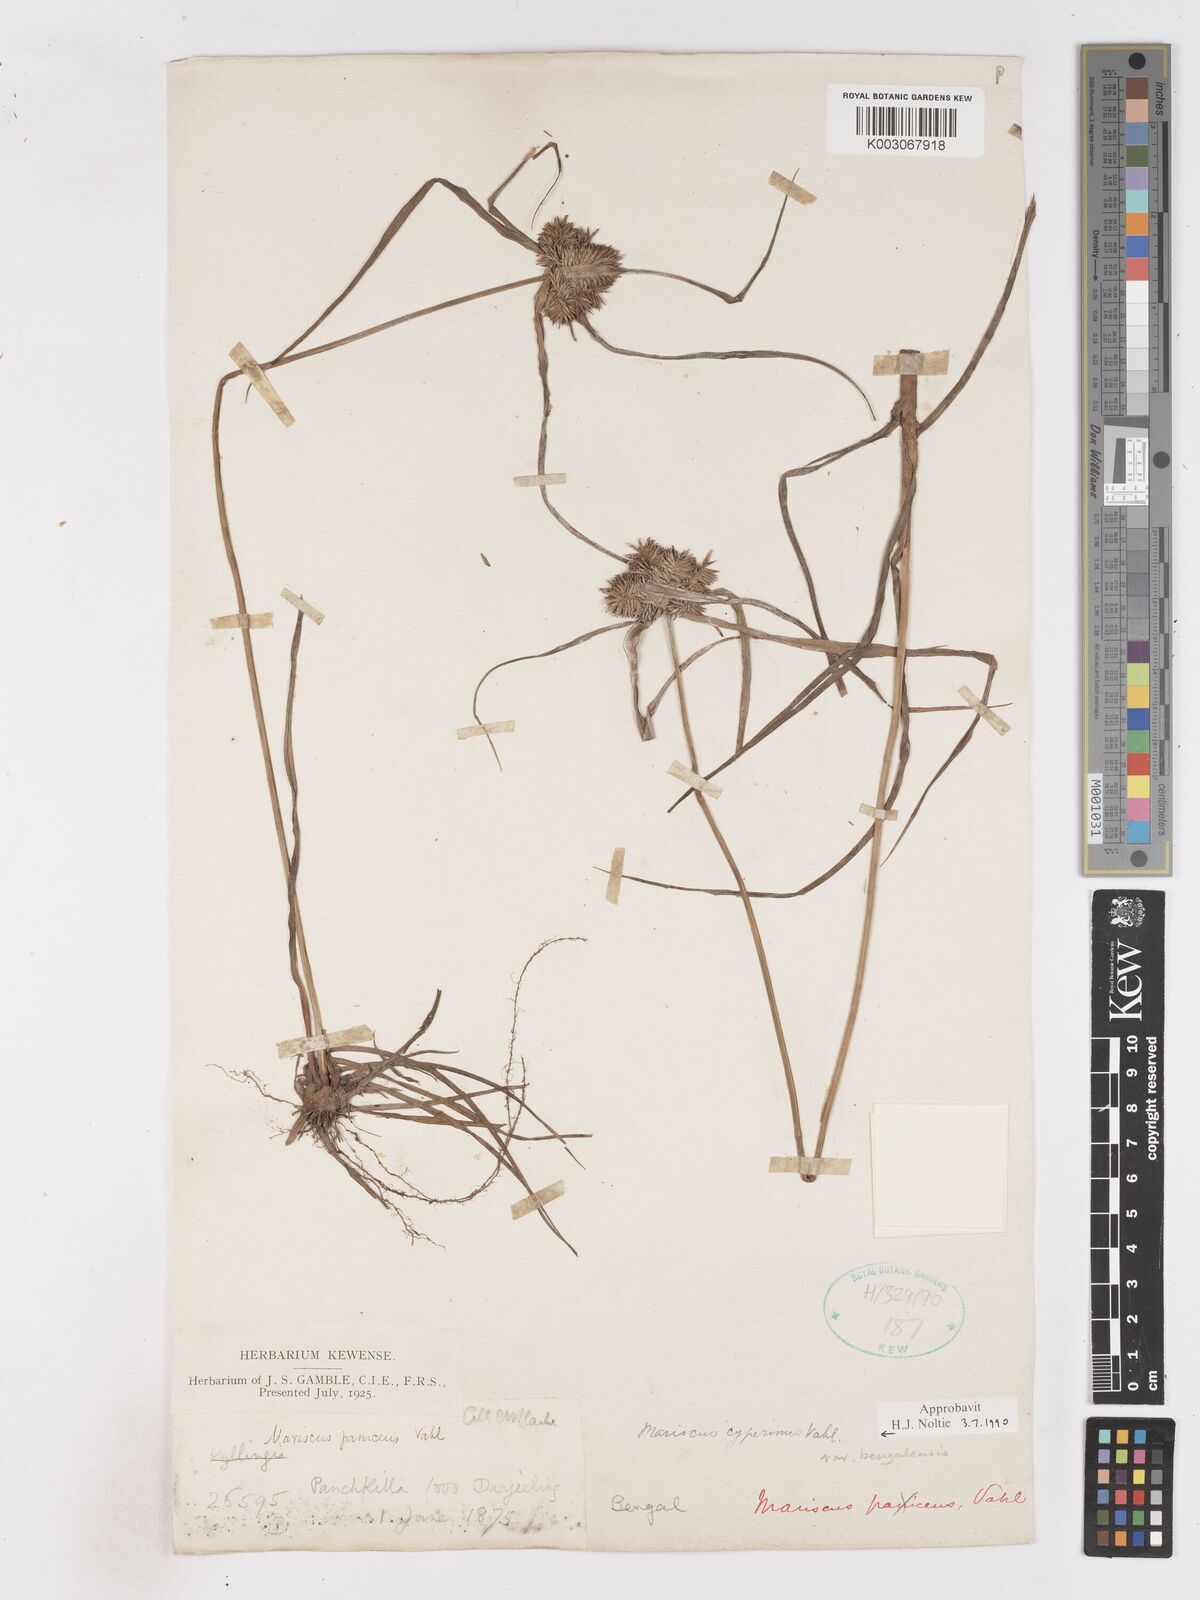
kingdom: Plantae
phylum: Tracheophyta
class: Liliopsida
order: Poales
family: Cyperaceae
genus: Cyperus
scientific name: Cyperus cyperinus
